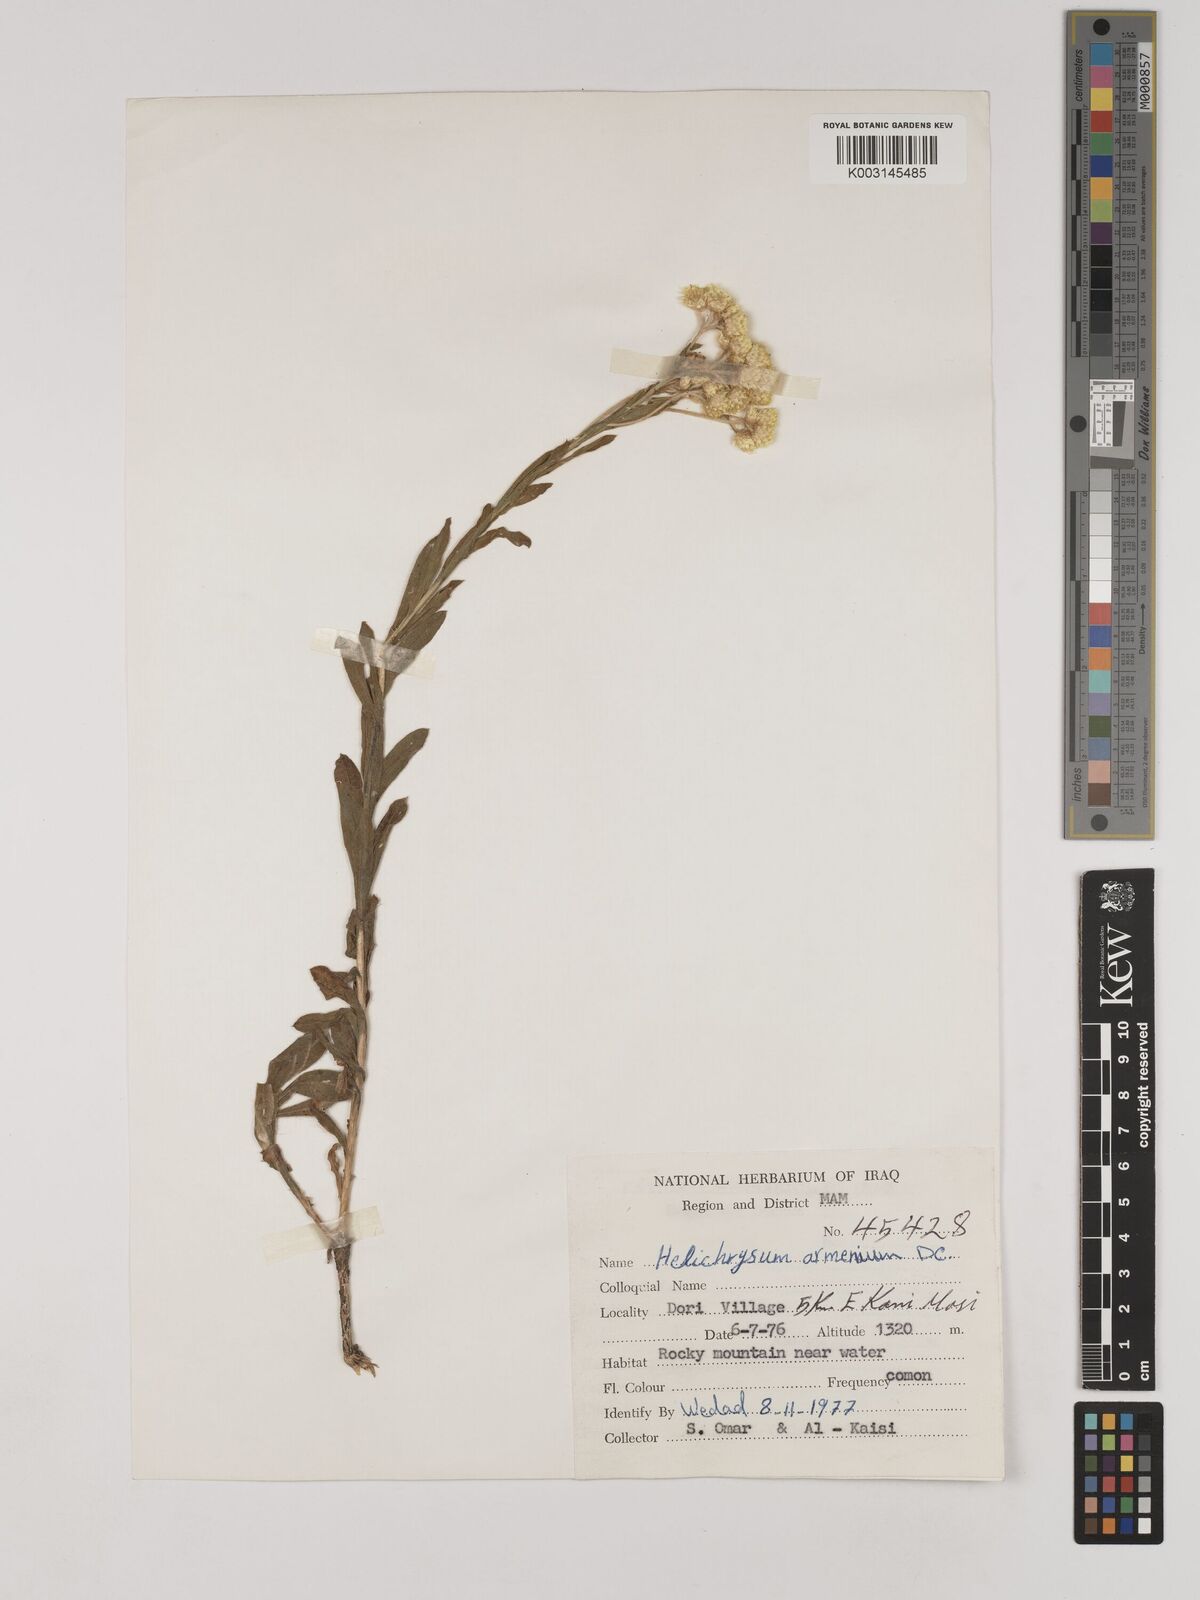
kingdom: Plantae
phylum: Tracheophyta
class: Magnoliopsida
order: Asterales
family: Asteraceae
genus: Helichrysum
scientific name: Helichrysum armenium
